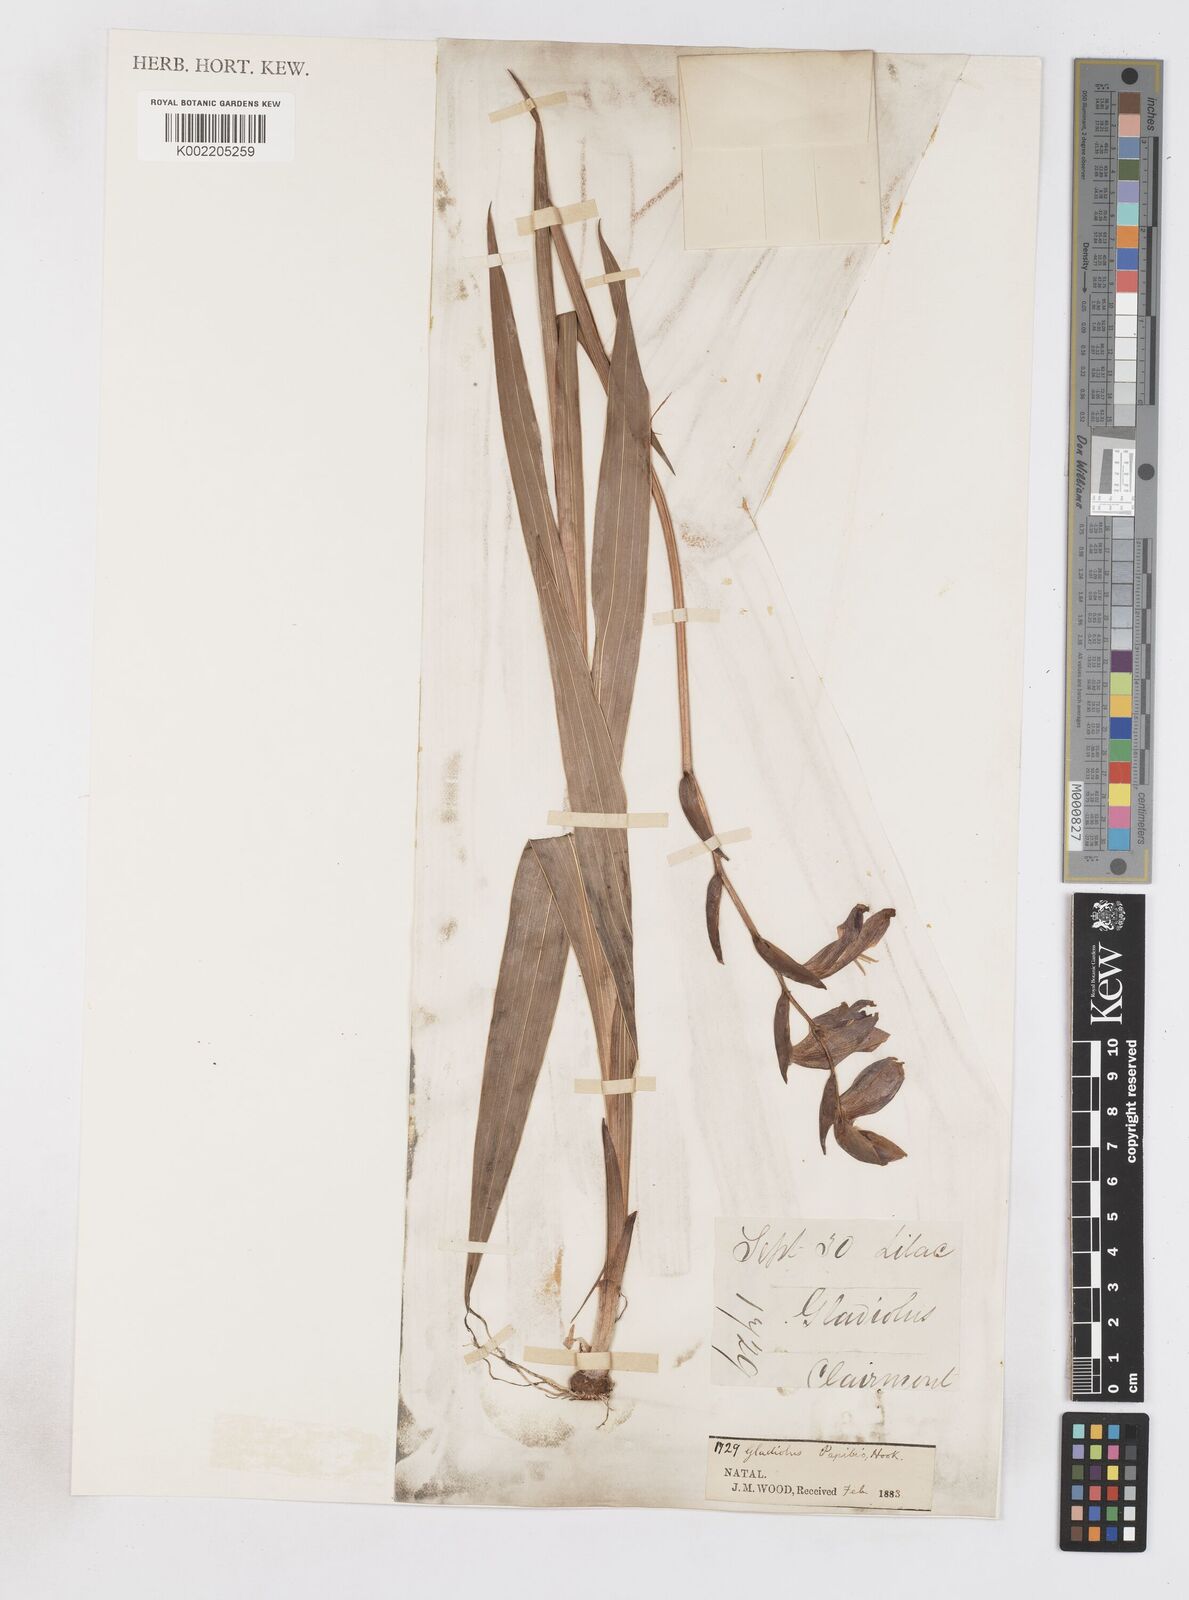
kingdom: Plantae
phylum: Tracheophyta
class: Liliopsida
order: Asparagales
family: Iridaceae
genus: Gladiolus
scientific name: Gladiolus papilio
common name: Goldblotch gladiolus
